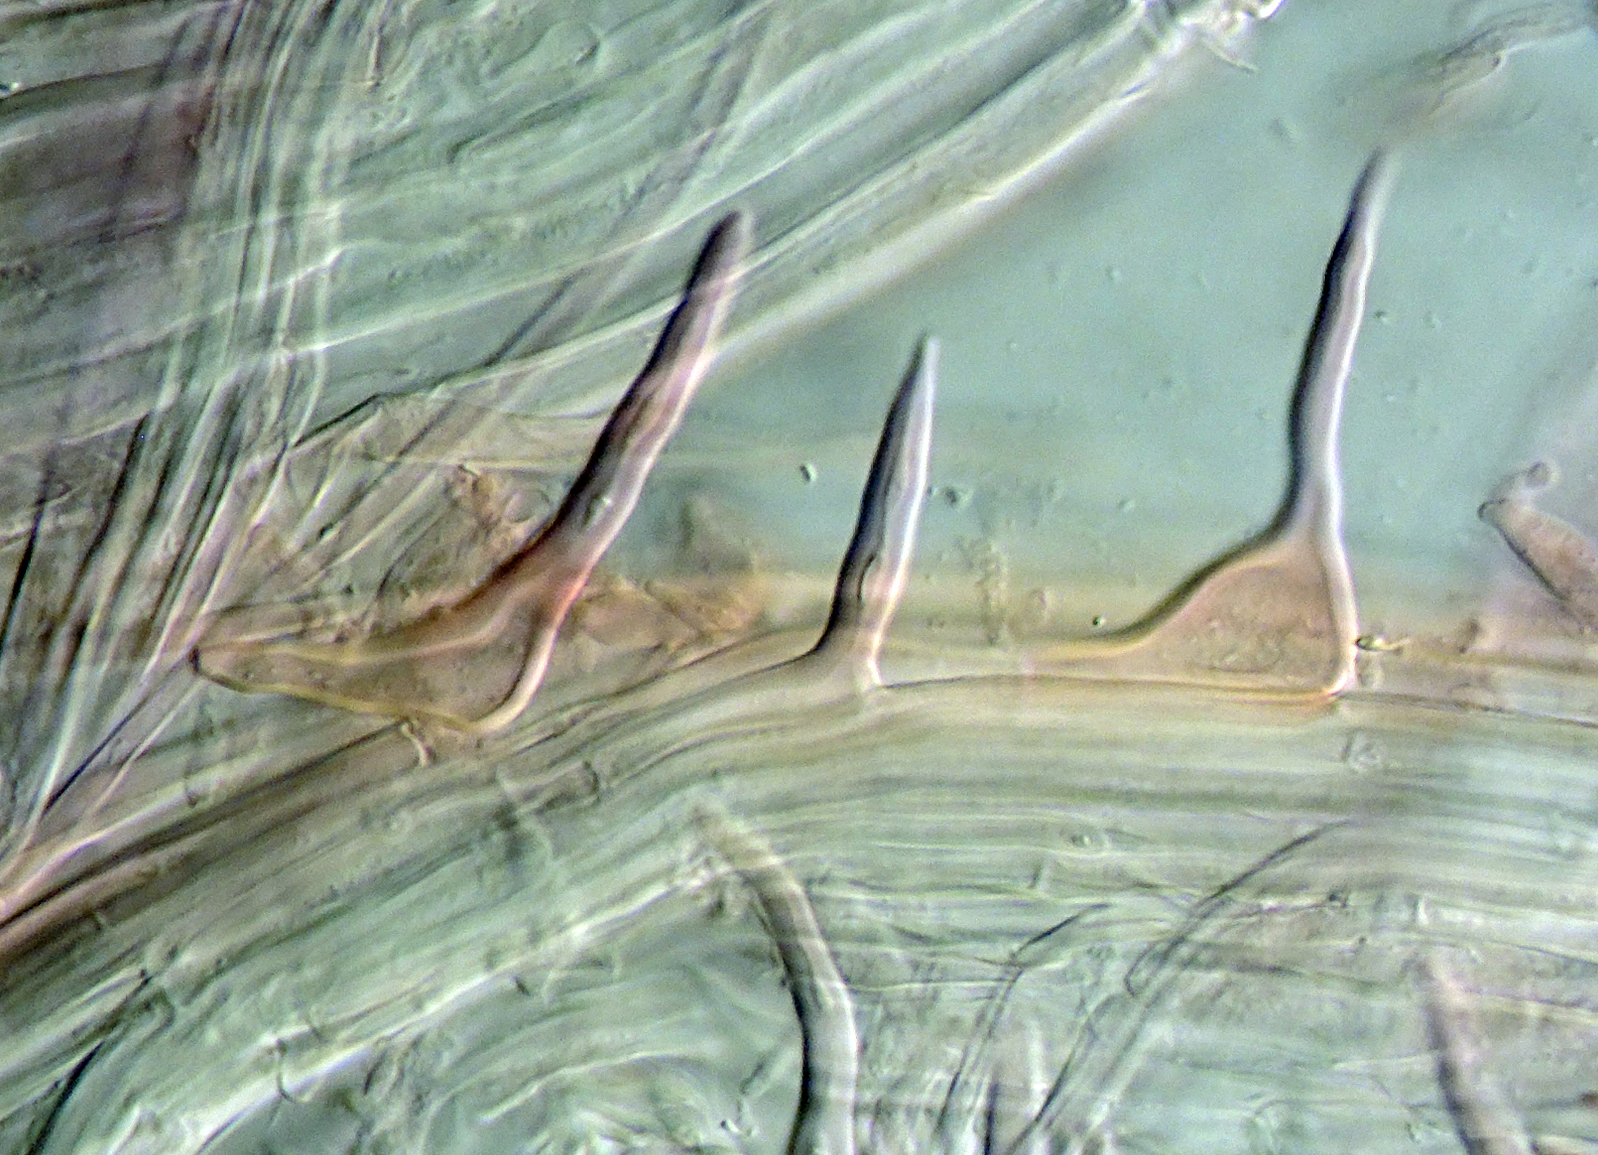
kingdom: Fungi
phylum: Basidiomycota
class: Agaricomycetes
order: Agaricales
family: Mycenaceae
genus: Hemimycena
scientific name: Hemimycena crispuloides
